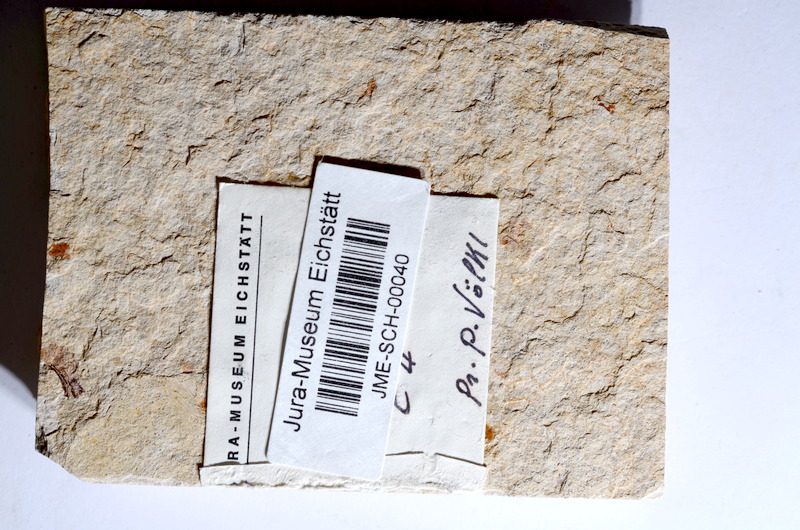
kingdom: Animalia
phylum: Chordata
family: Ascalaboidae
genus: Tharsis
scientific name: Tharsis dubius
